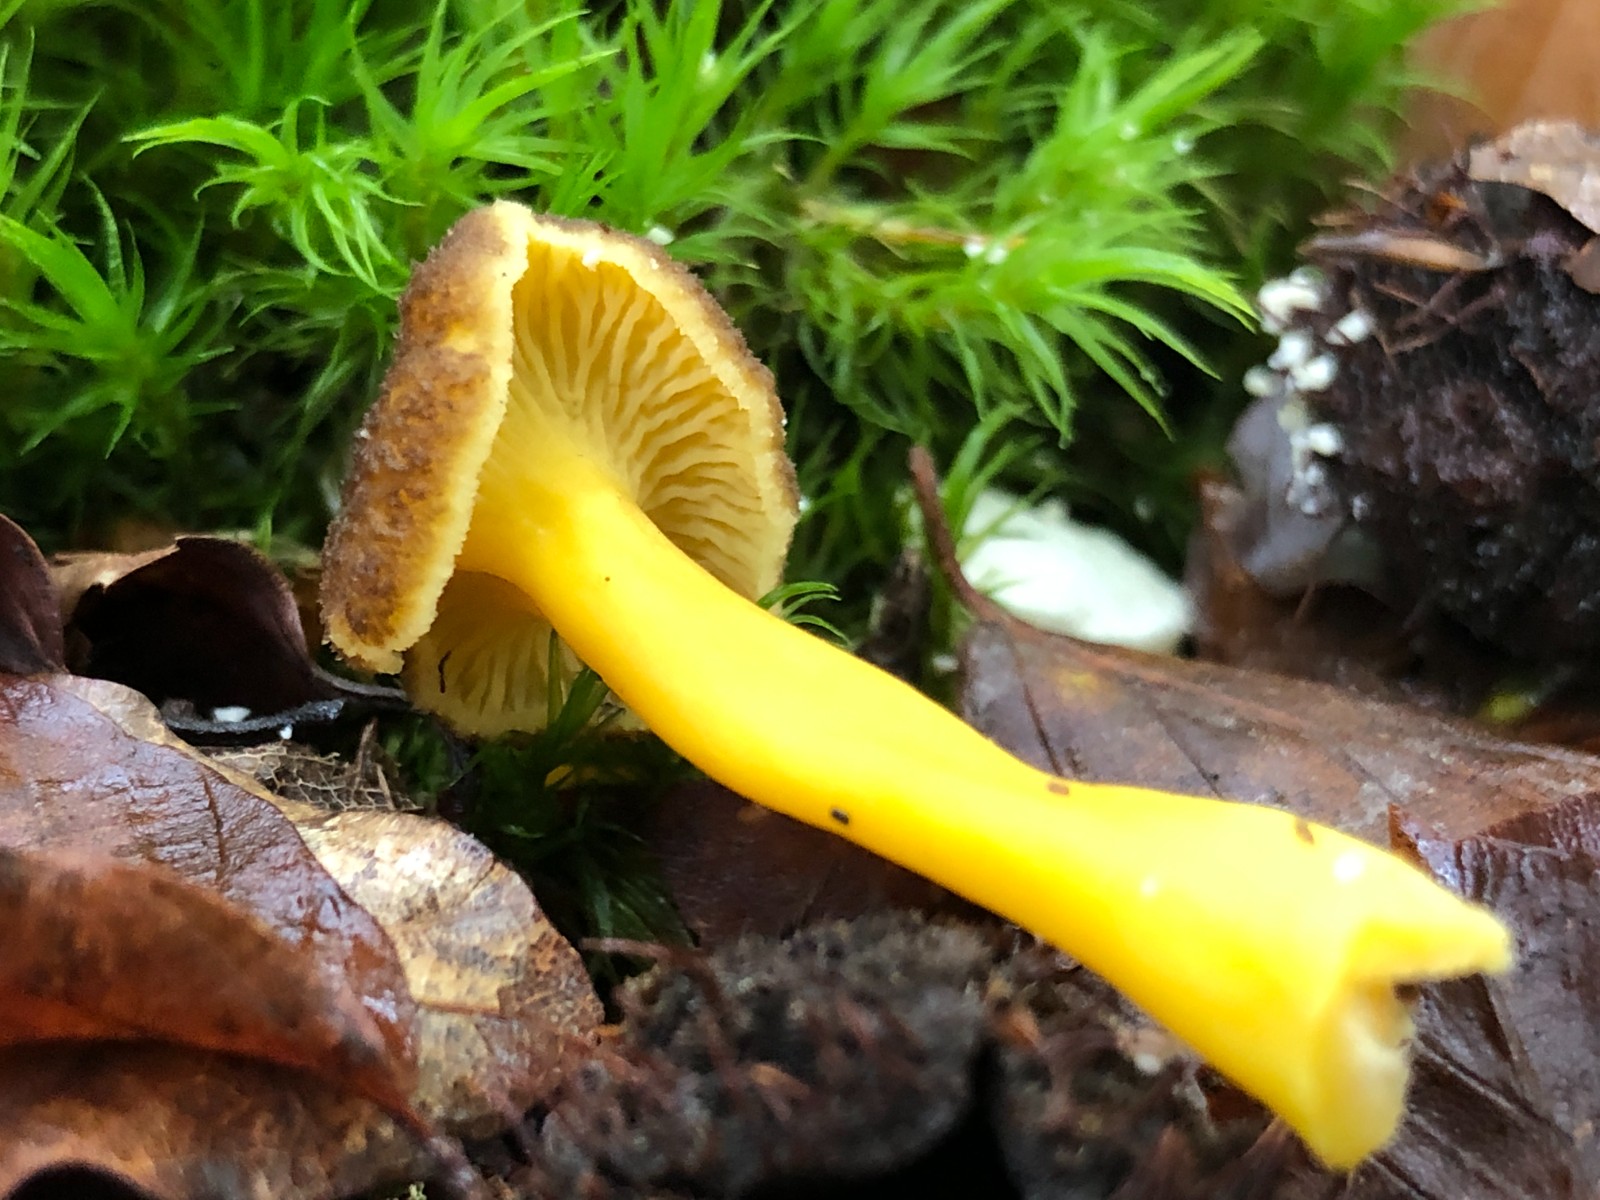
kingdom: Fungi
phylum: Basidiomycota
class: Agaricomycetes
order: Cantharellales
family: Hydnaceae
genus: Craterellus
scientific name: Craterellus tubaeformis
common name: tragt-kantarel
